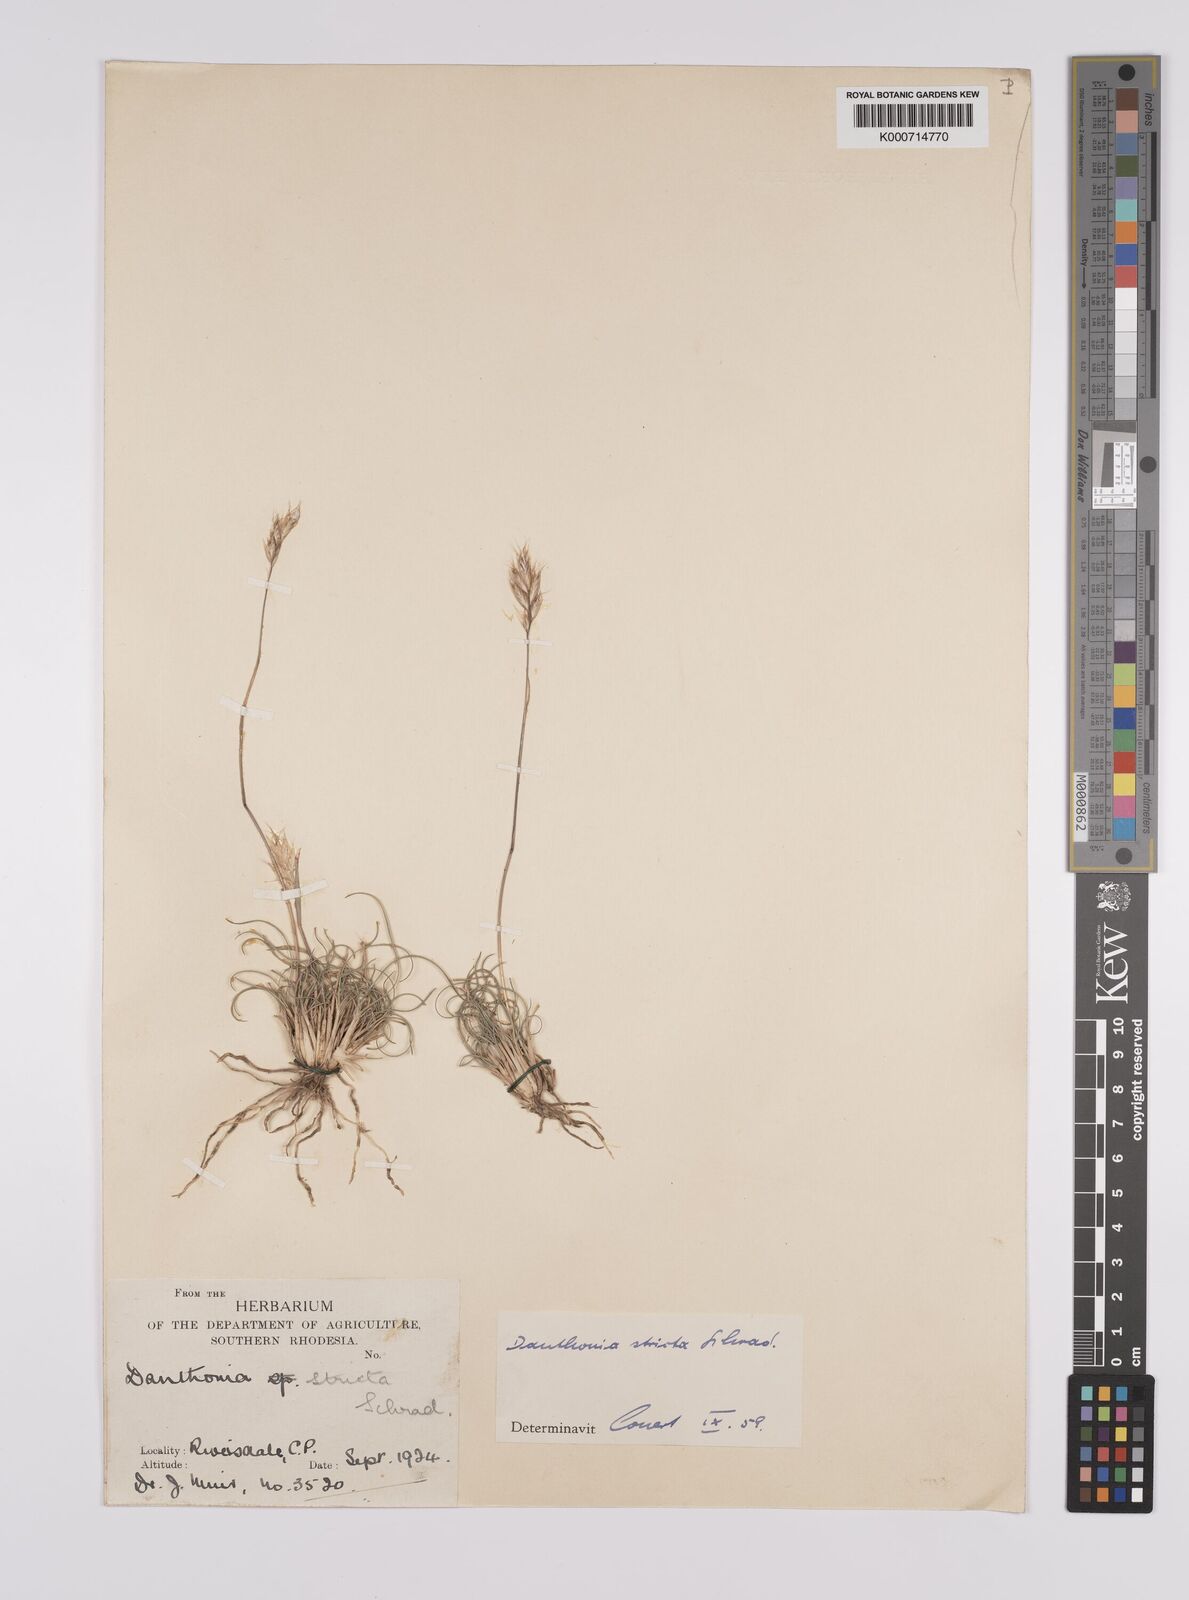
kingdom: Plantae
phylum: Tracheophyta
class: Liliopsida
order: Poales
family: Poaceae
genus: Rytidosperma
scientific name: Rytidosperma
